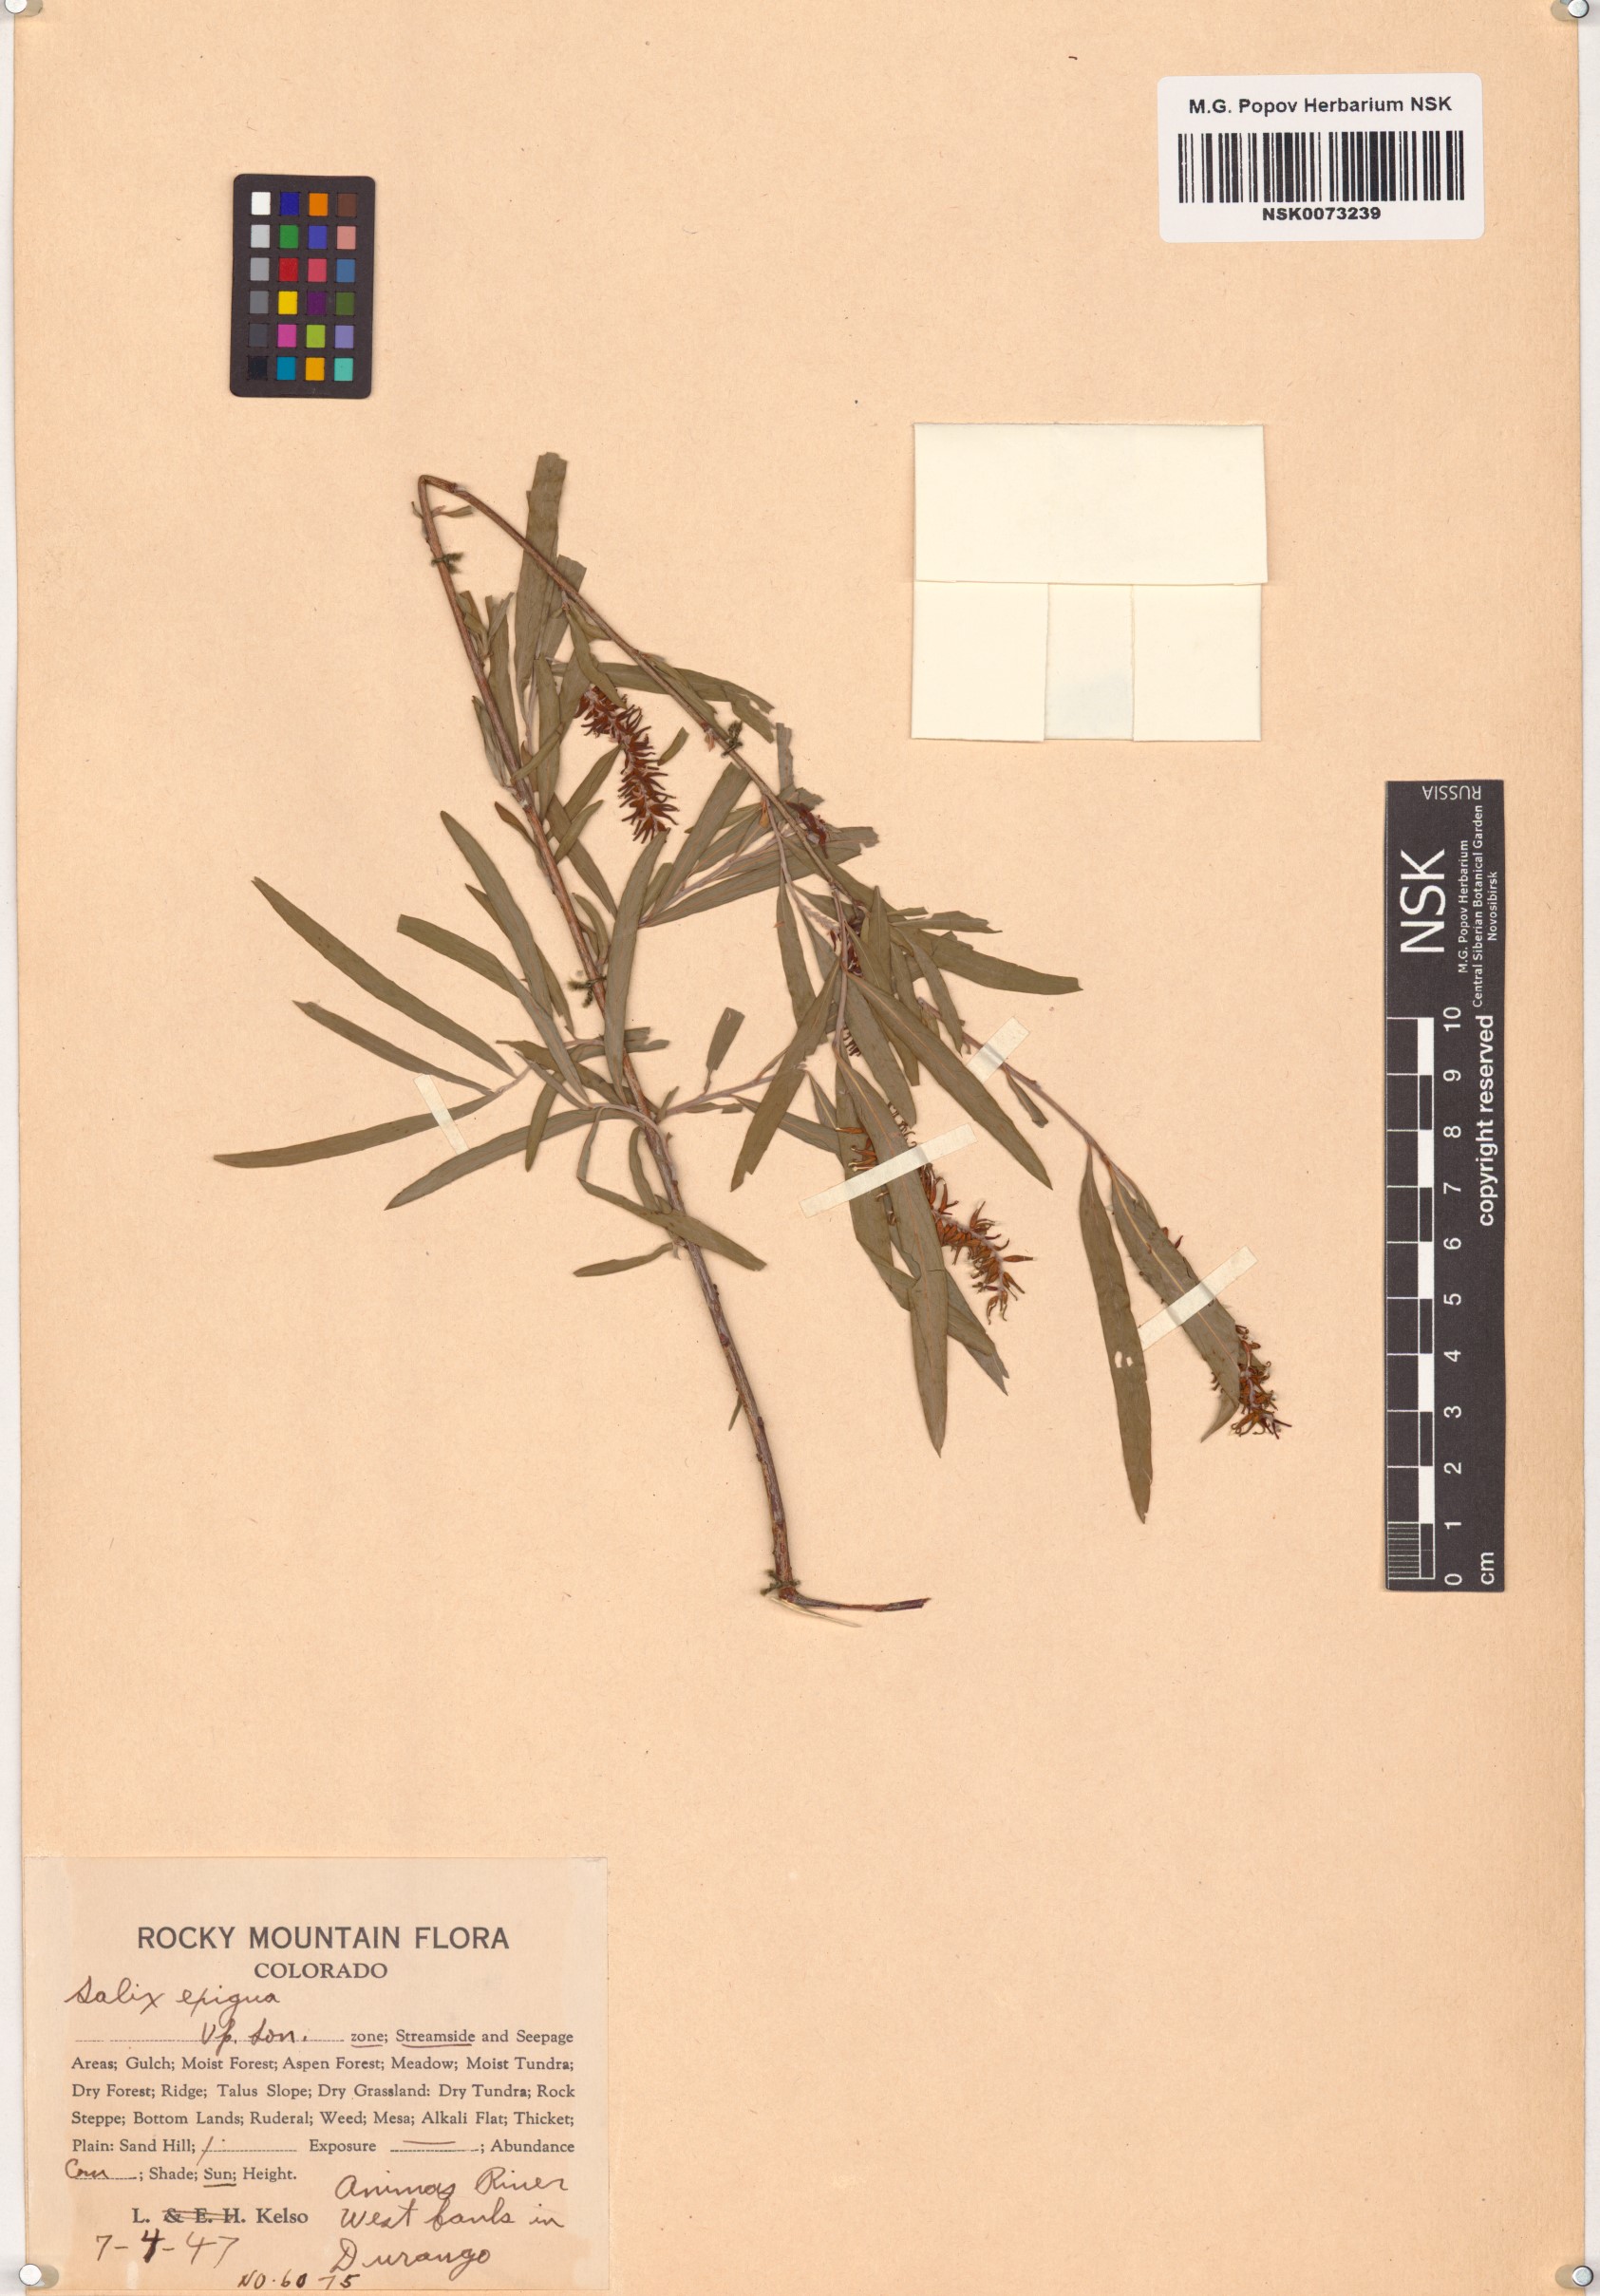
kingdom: Plantae
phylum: Tracheophyta
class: Magnoliopsida
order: Malpighiales
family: Salicaceae
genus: Salix
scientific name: Salix exigua
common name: Coyote willow
